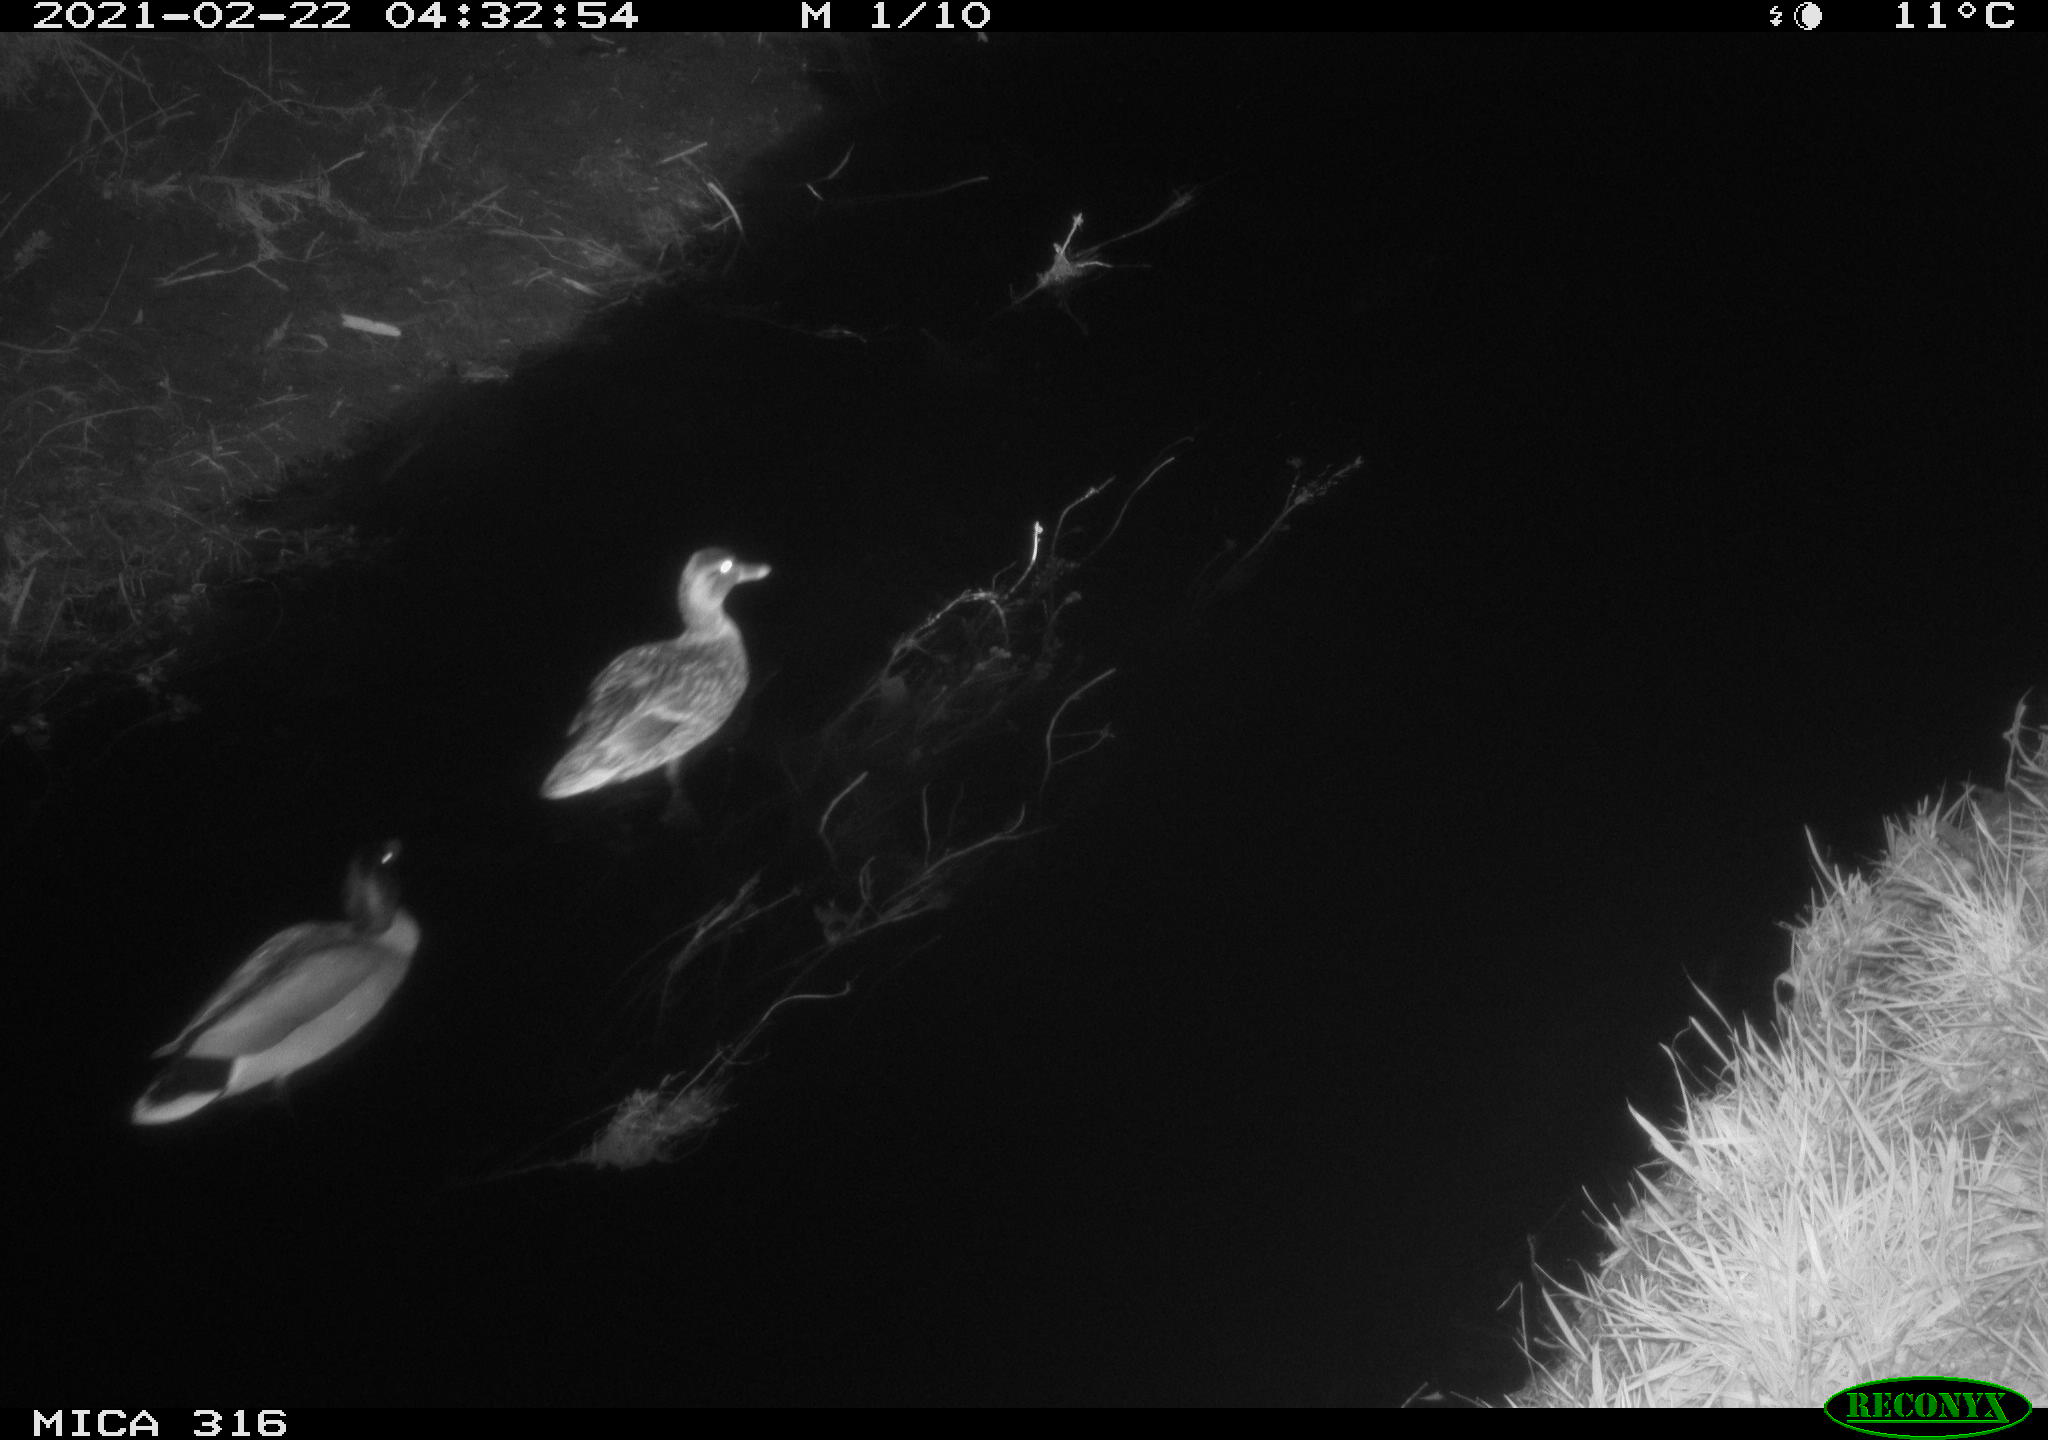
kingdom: Animalia
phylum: Chordata
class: Aves
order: Anseriformes
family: Anatidae
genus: Anas
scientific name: Anas platyrhynchos
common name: Mallard
